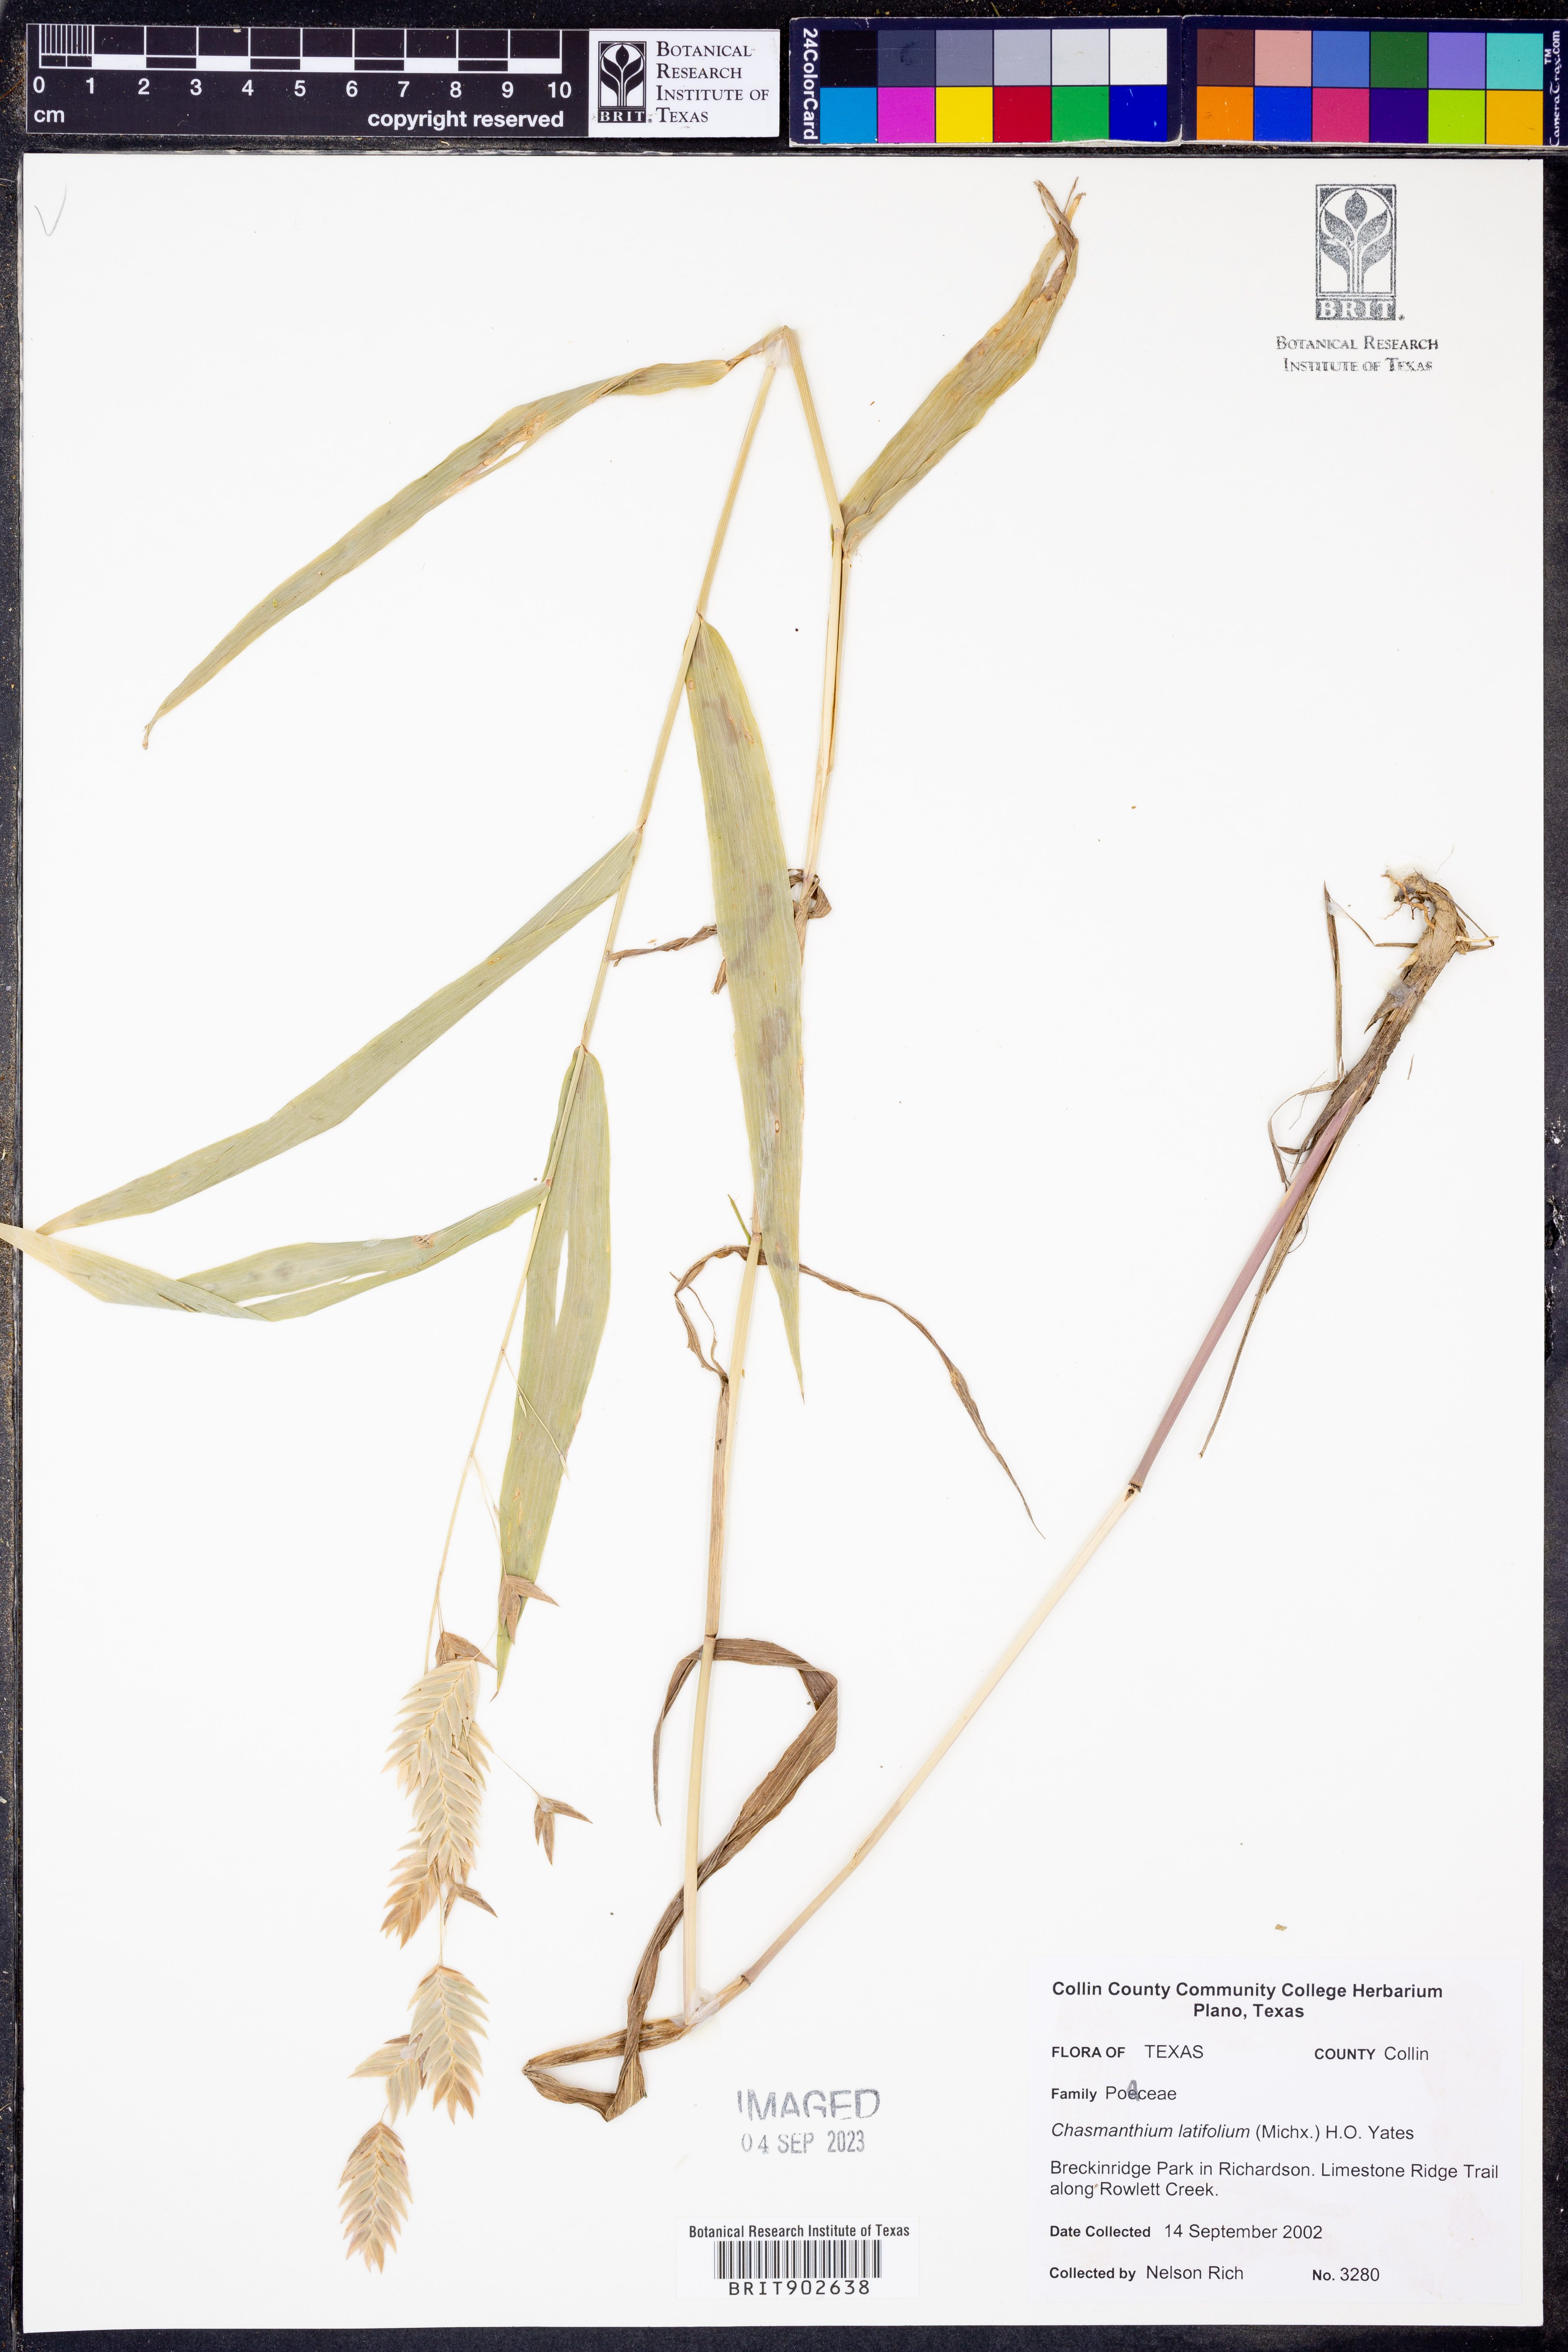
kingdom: Plantae
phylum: Tracheophyta
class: Liliopsida
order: Poales
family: Poaceae
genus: Chasmanthium
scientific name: Chasmanthium latifolium
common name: Broad-leaved chasmanthium
